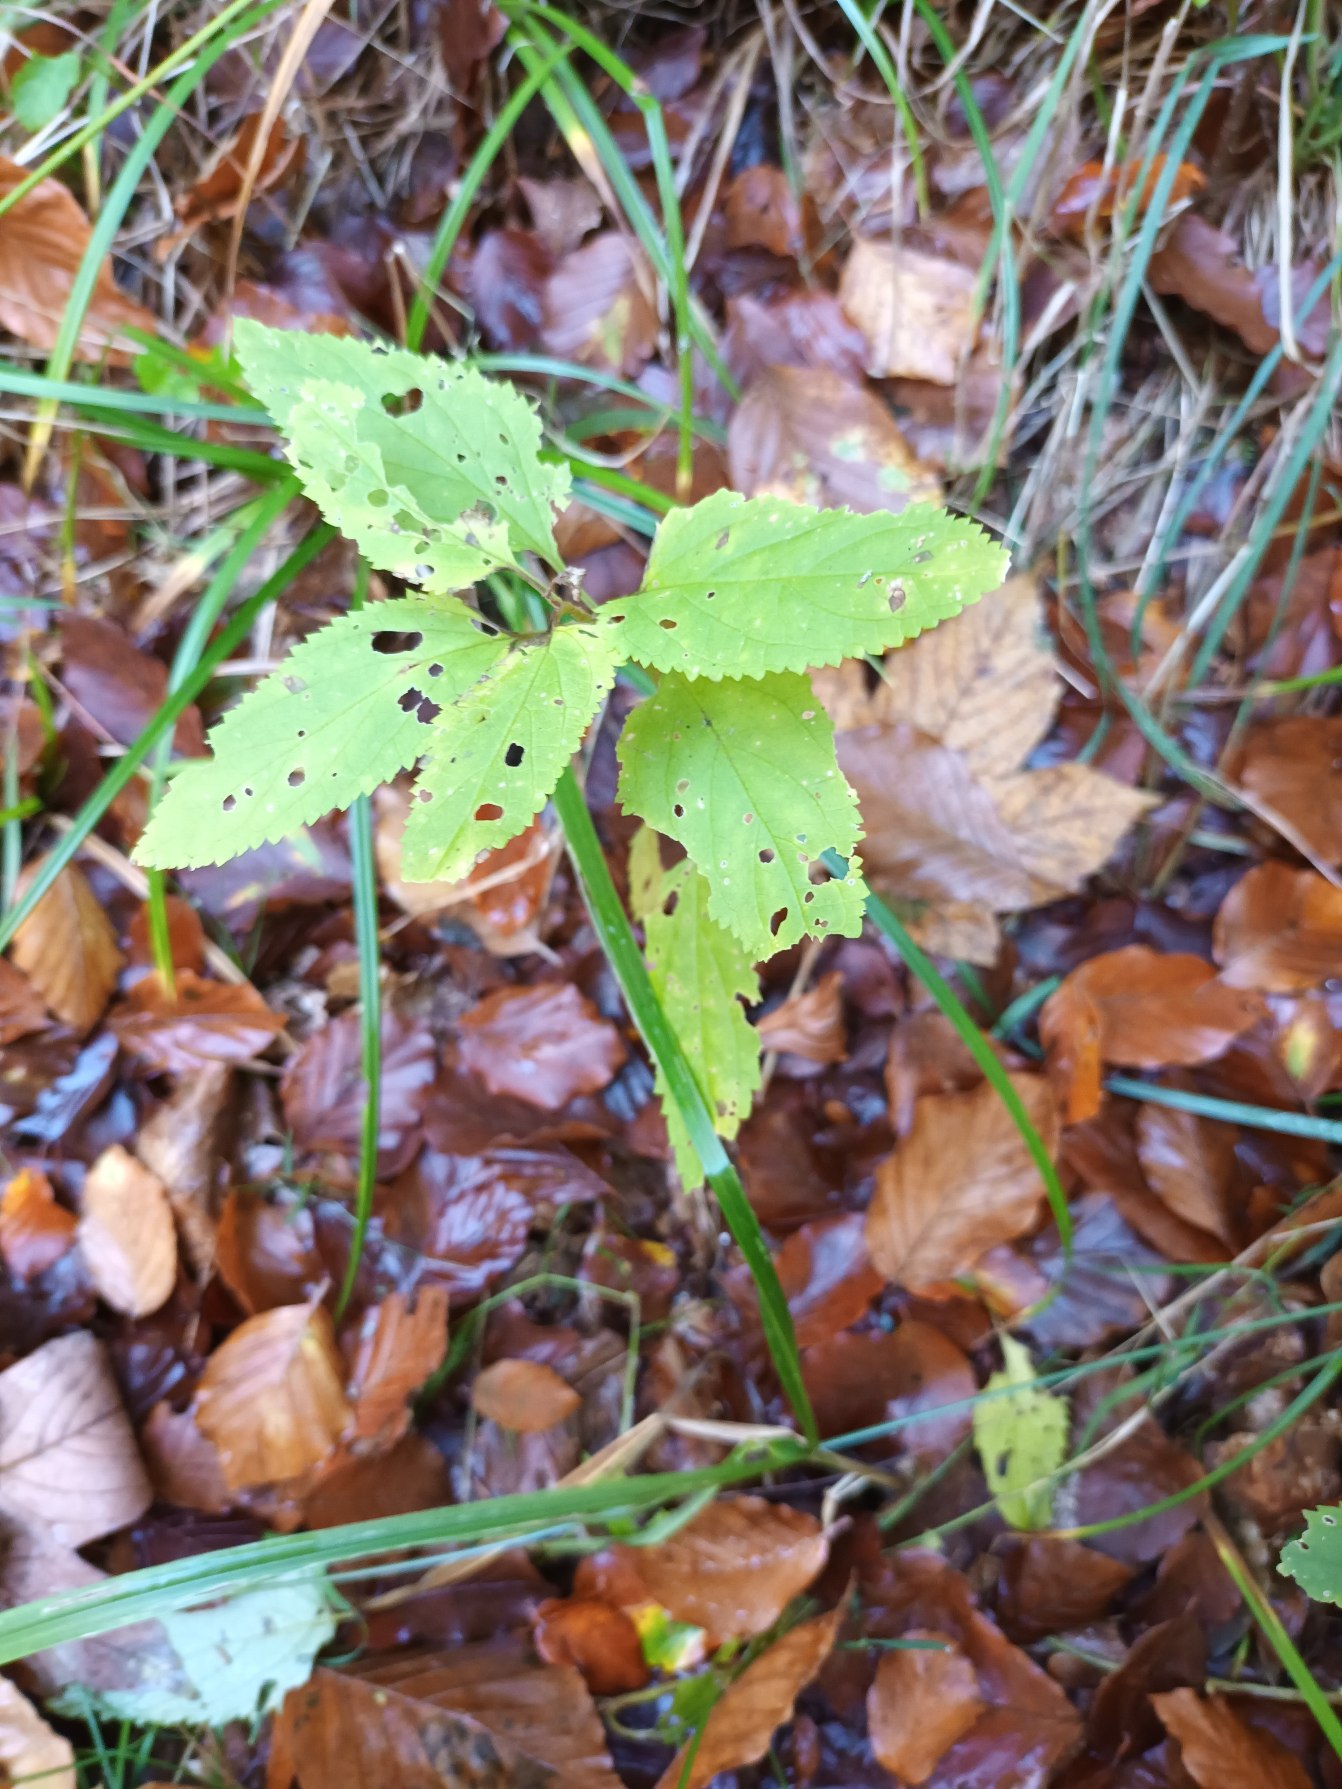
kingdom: Plantae
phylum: Tracheophyta
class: Magnoliopsida
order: Lamiales
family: Scrophulariaceae
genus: Scrophularia
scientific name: Scrophularia nodosa
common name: Knoldet brunrod
